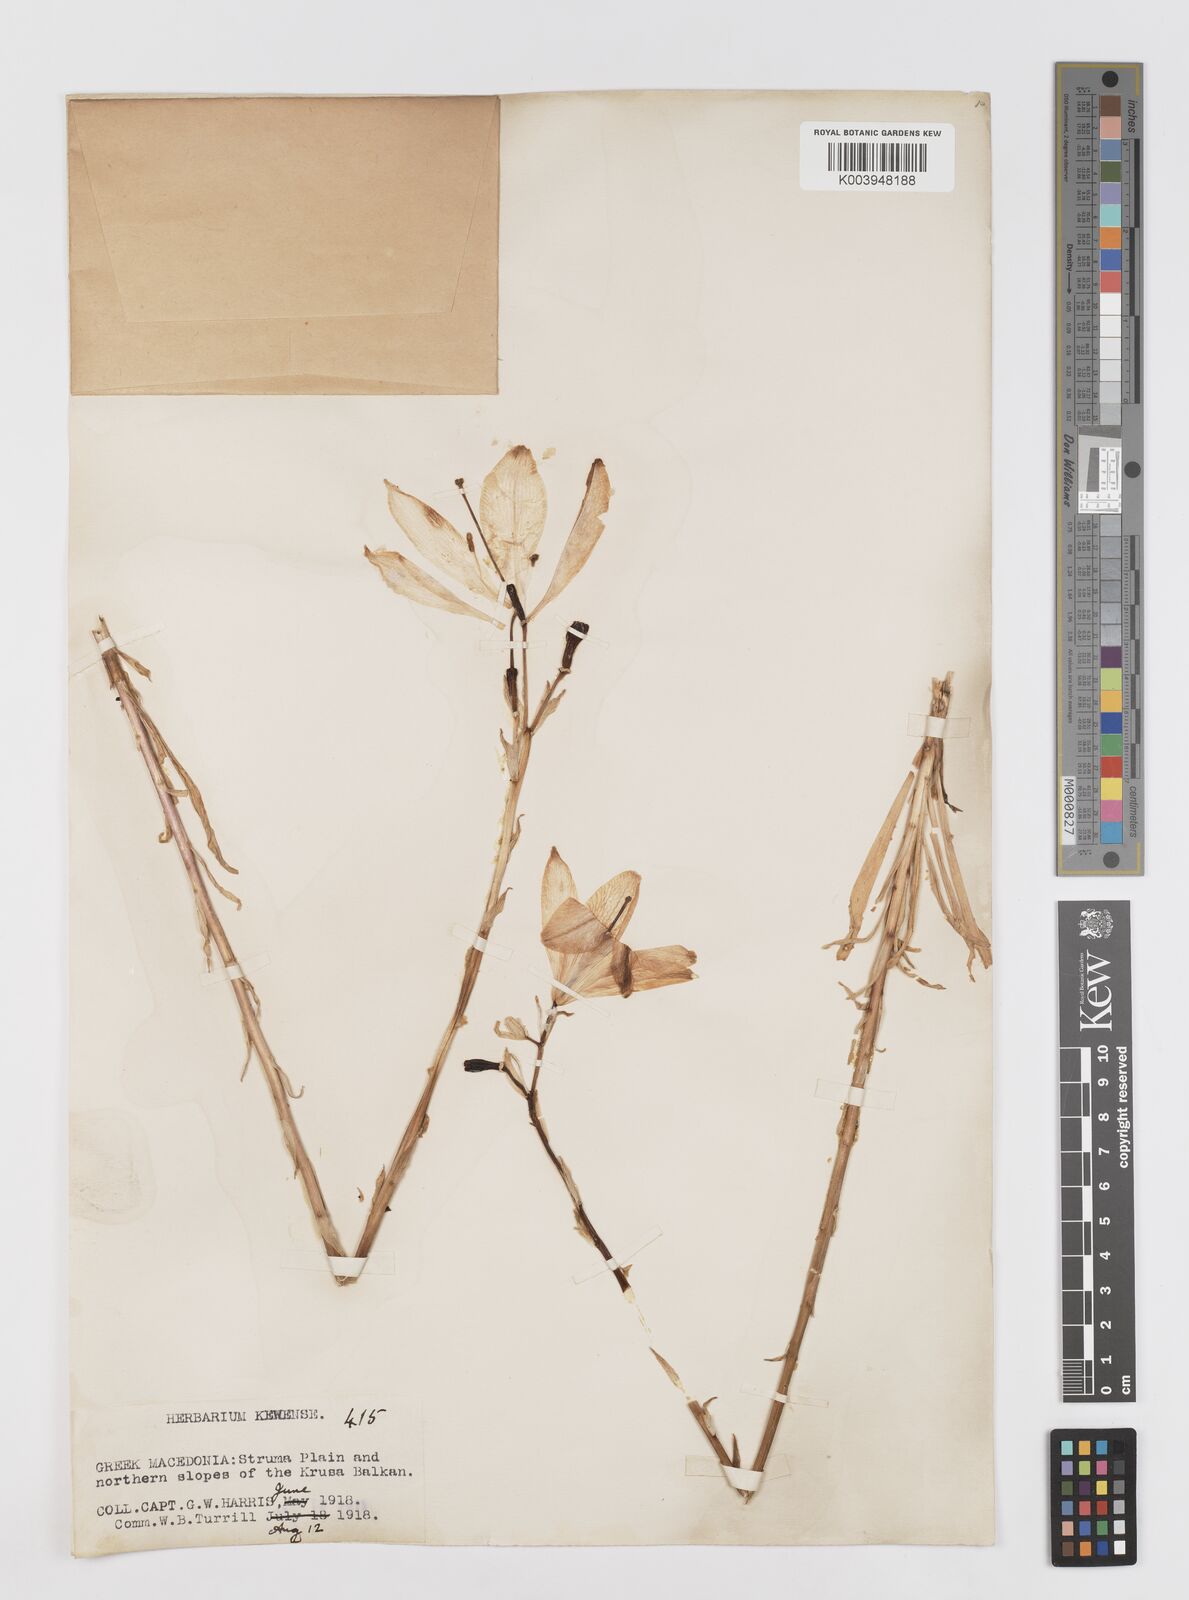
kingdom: Plantae
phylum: Tracheophyta
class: Liliopsida
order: Liliales
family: Liliaceae
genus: Lilium
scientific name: Lilium candidum
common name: Madonna lily
